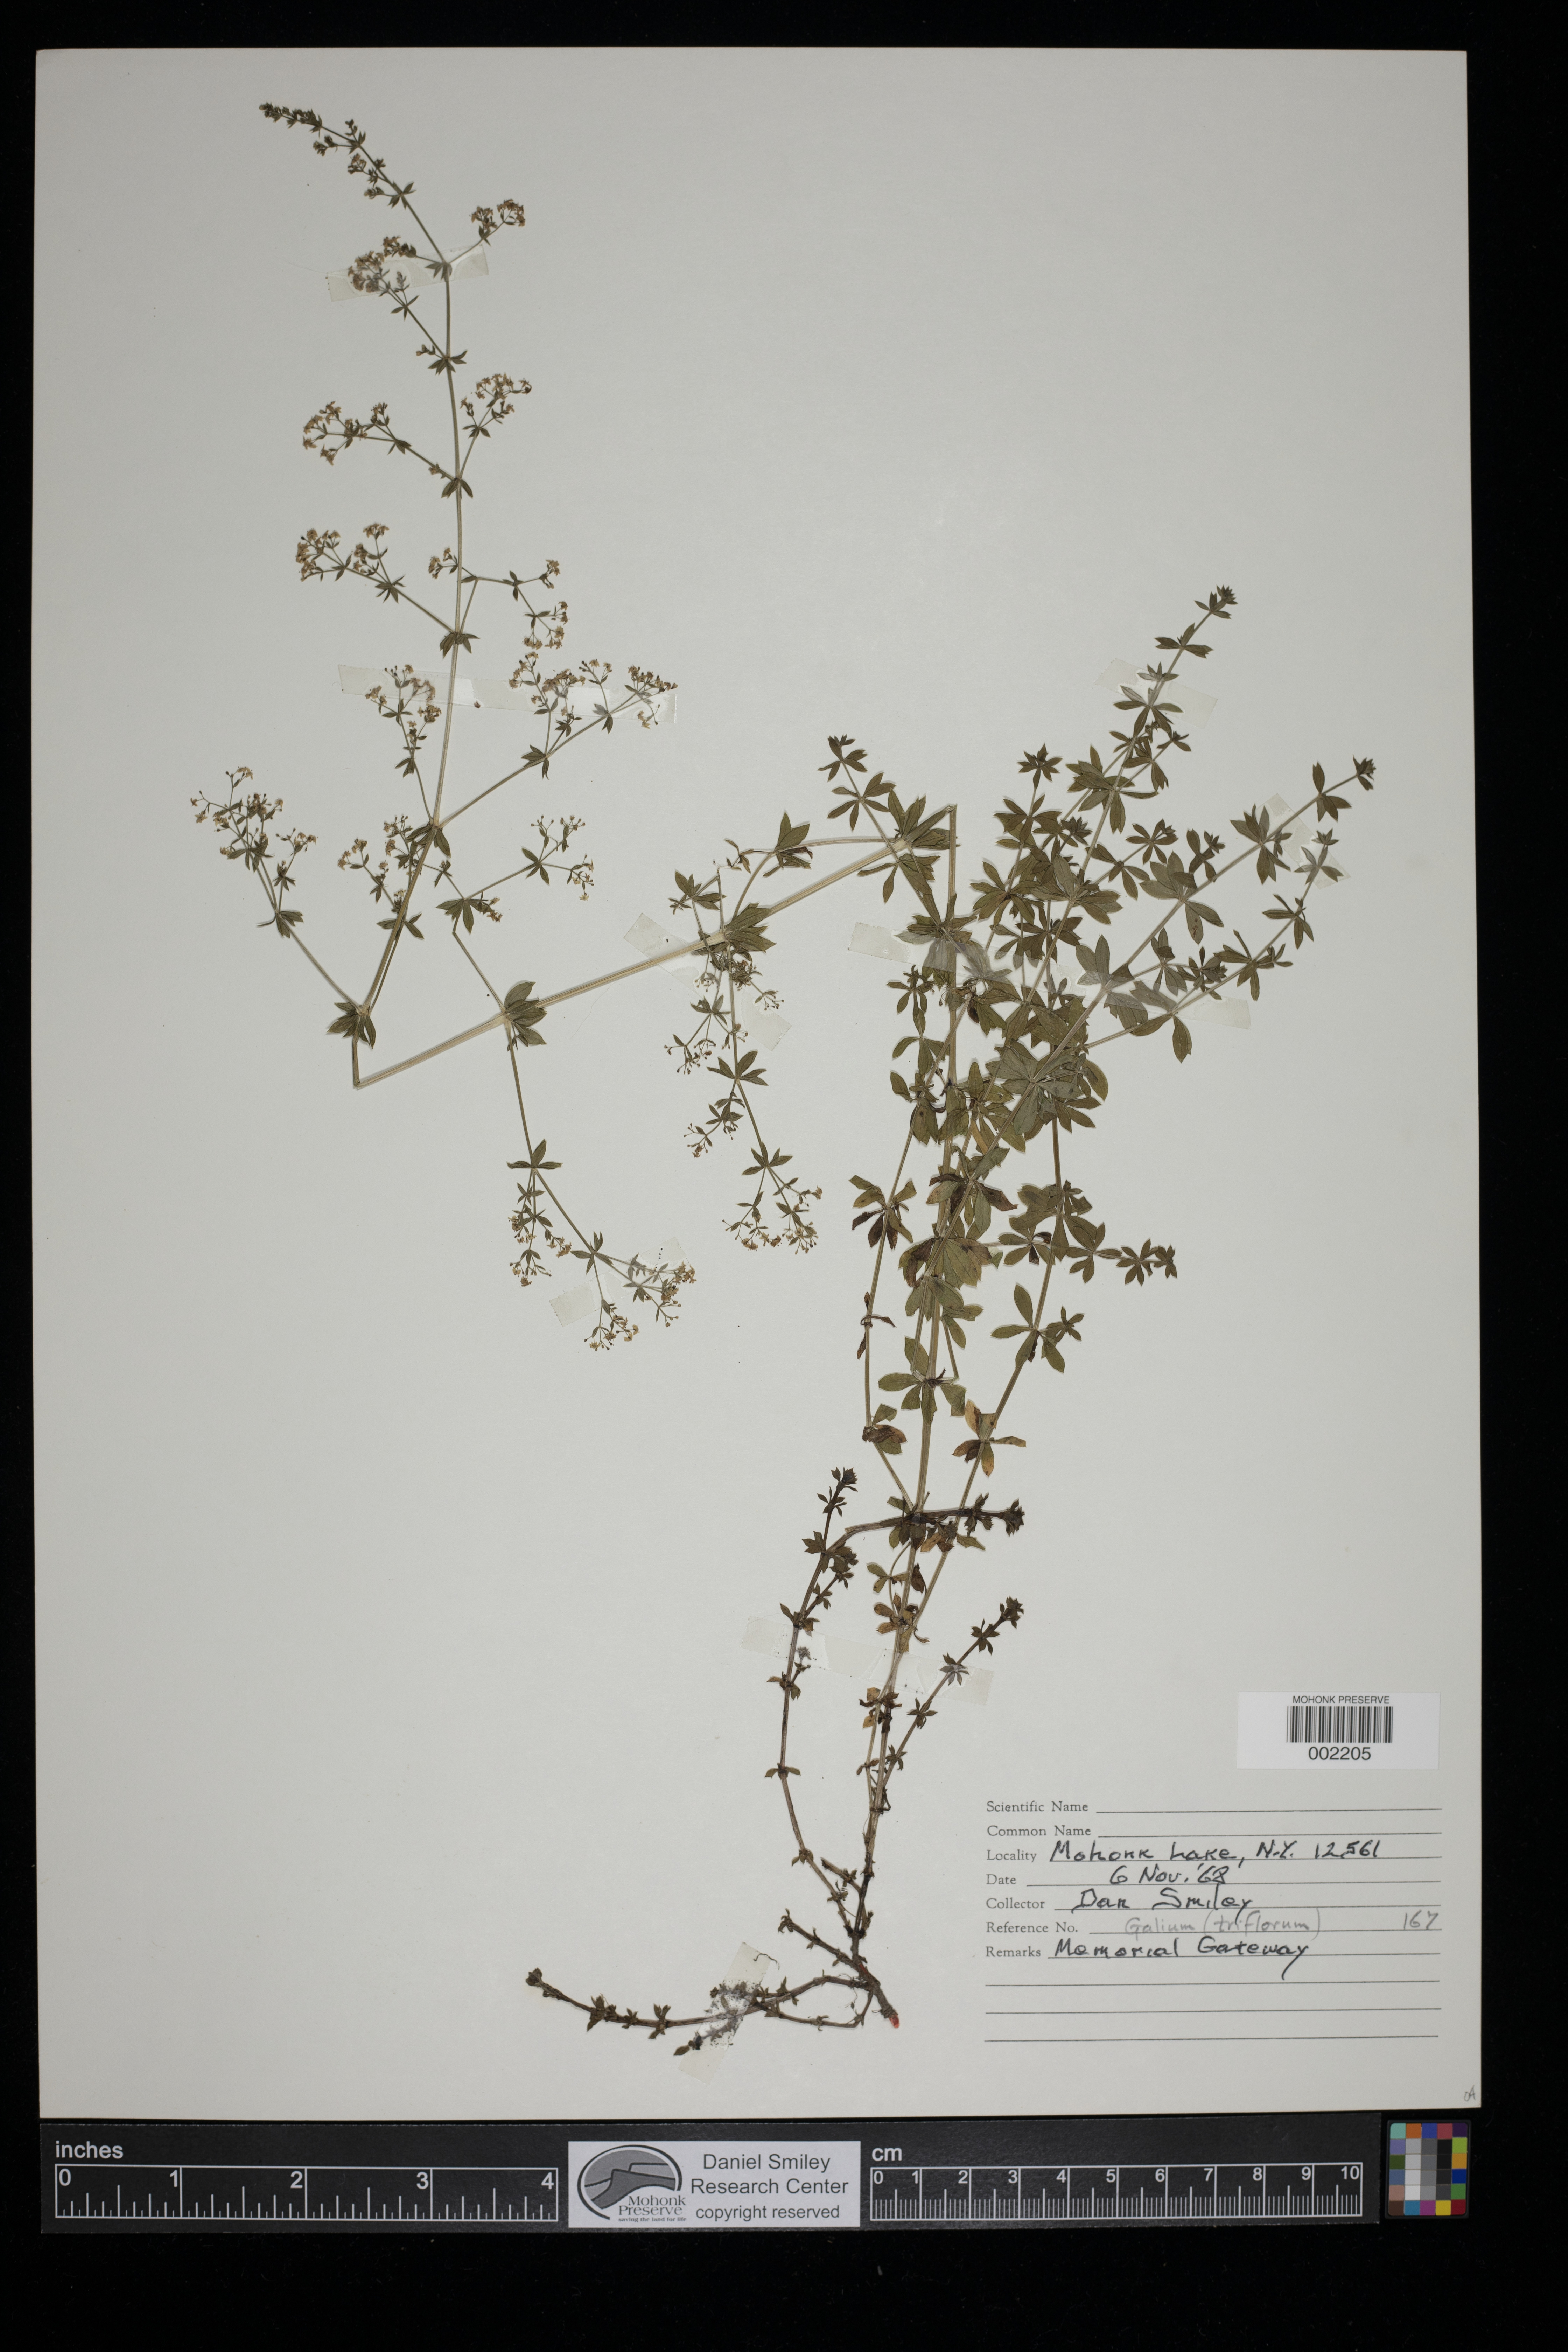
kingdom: Plantae
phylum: Tracheophyta
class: Magnoliopsida
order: Gentianales
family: Rubiaceae
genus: Galium
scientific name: Galium triflorum
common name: Fragrant bedstraw
